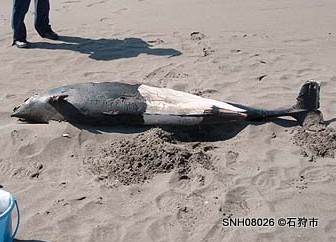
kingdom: Animalia
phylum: Chordata
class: Mammalia
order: Cetacea
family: Phocoenidae
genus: Phocoenoides
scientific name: Phocoenoides dalli
